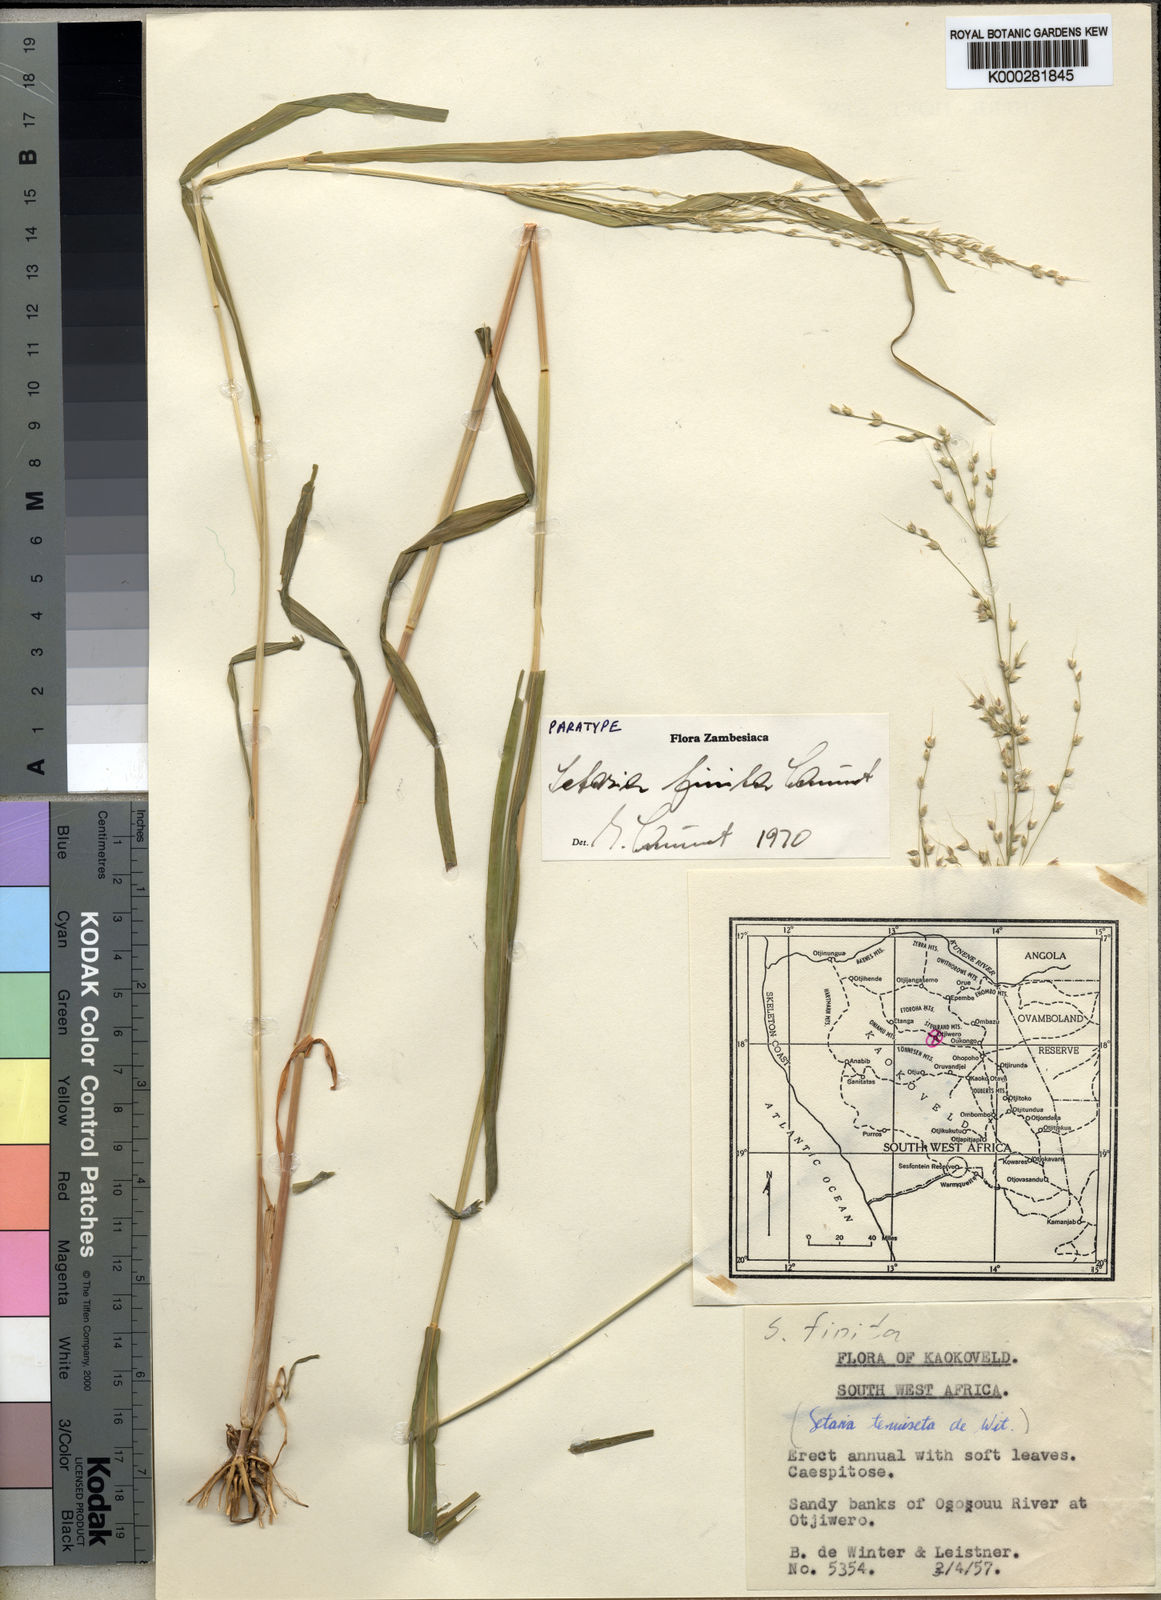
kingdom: Plantae
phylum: Tracheophyta
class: Liliopsida
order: Poales
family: Poaceae
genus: Setaria
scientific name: Setaria finita
